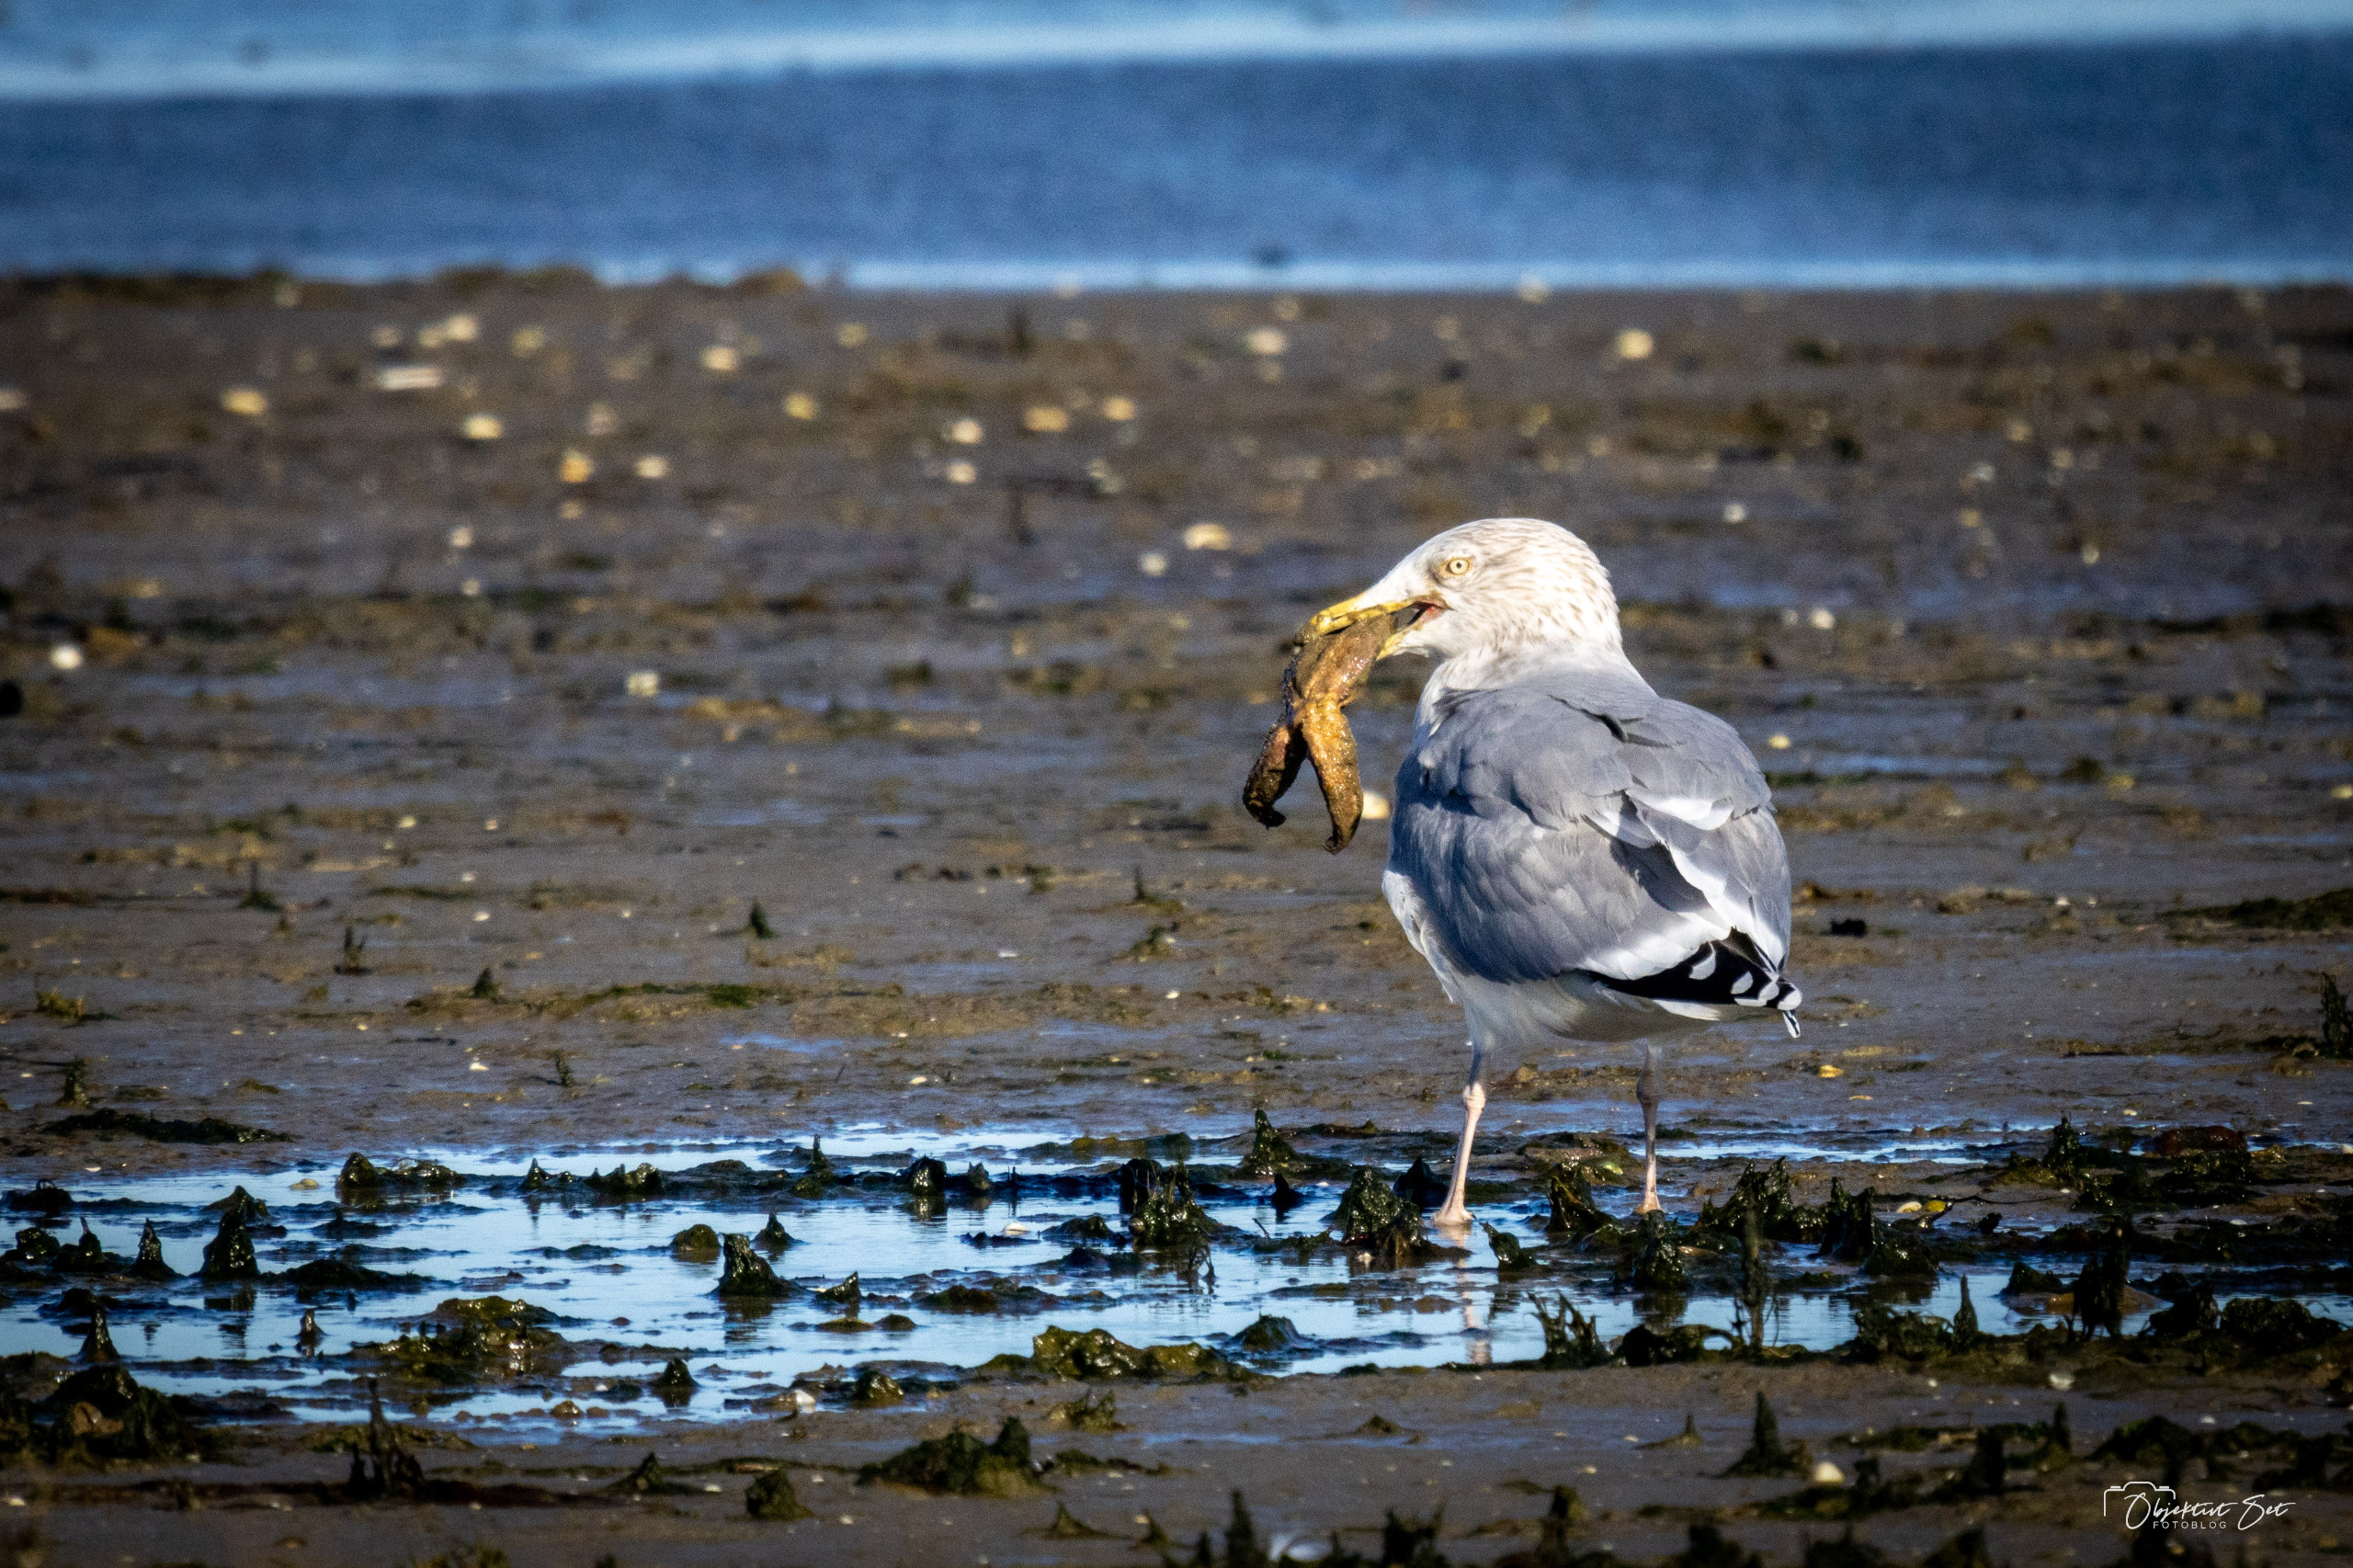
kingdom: Animalia
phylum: Chordata
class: Aves
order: Charadriiformes
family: Laridae
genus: Larus
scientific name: Larus argentatus
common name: Sølvmåge
